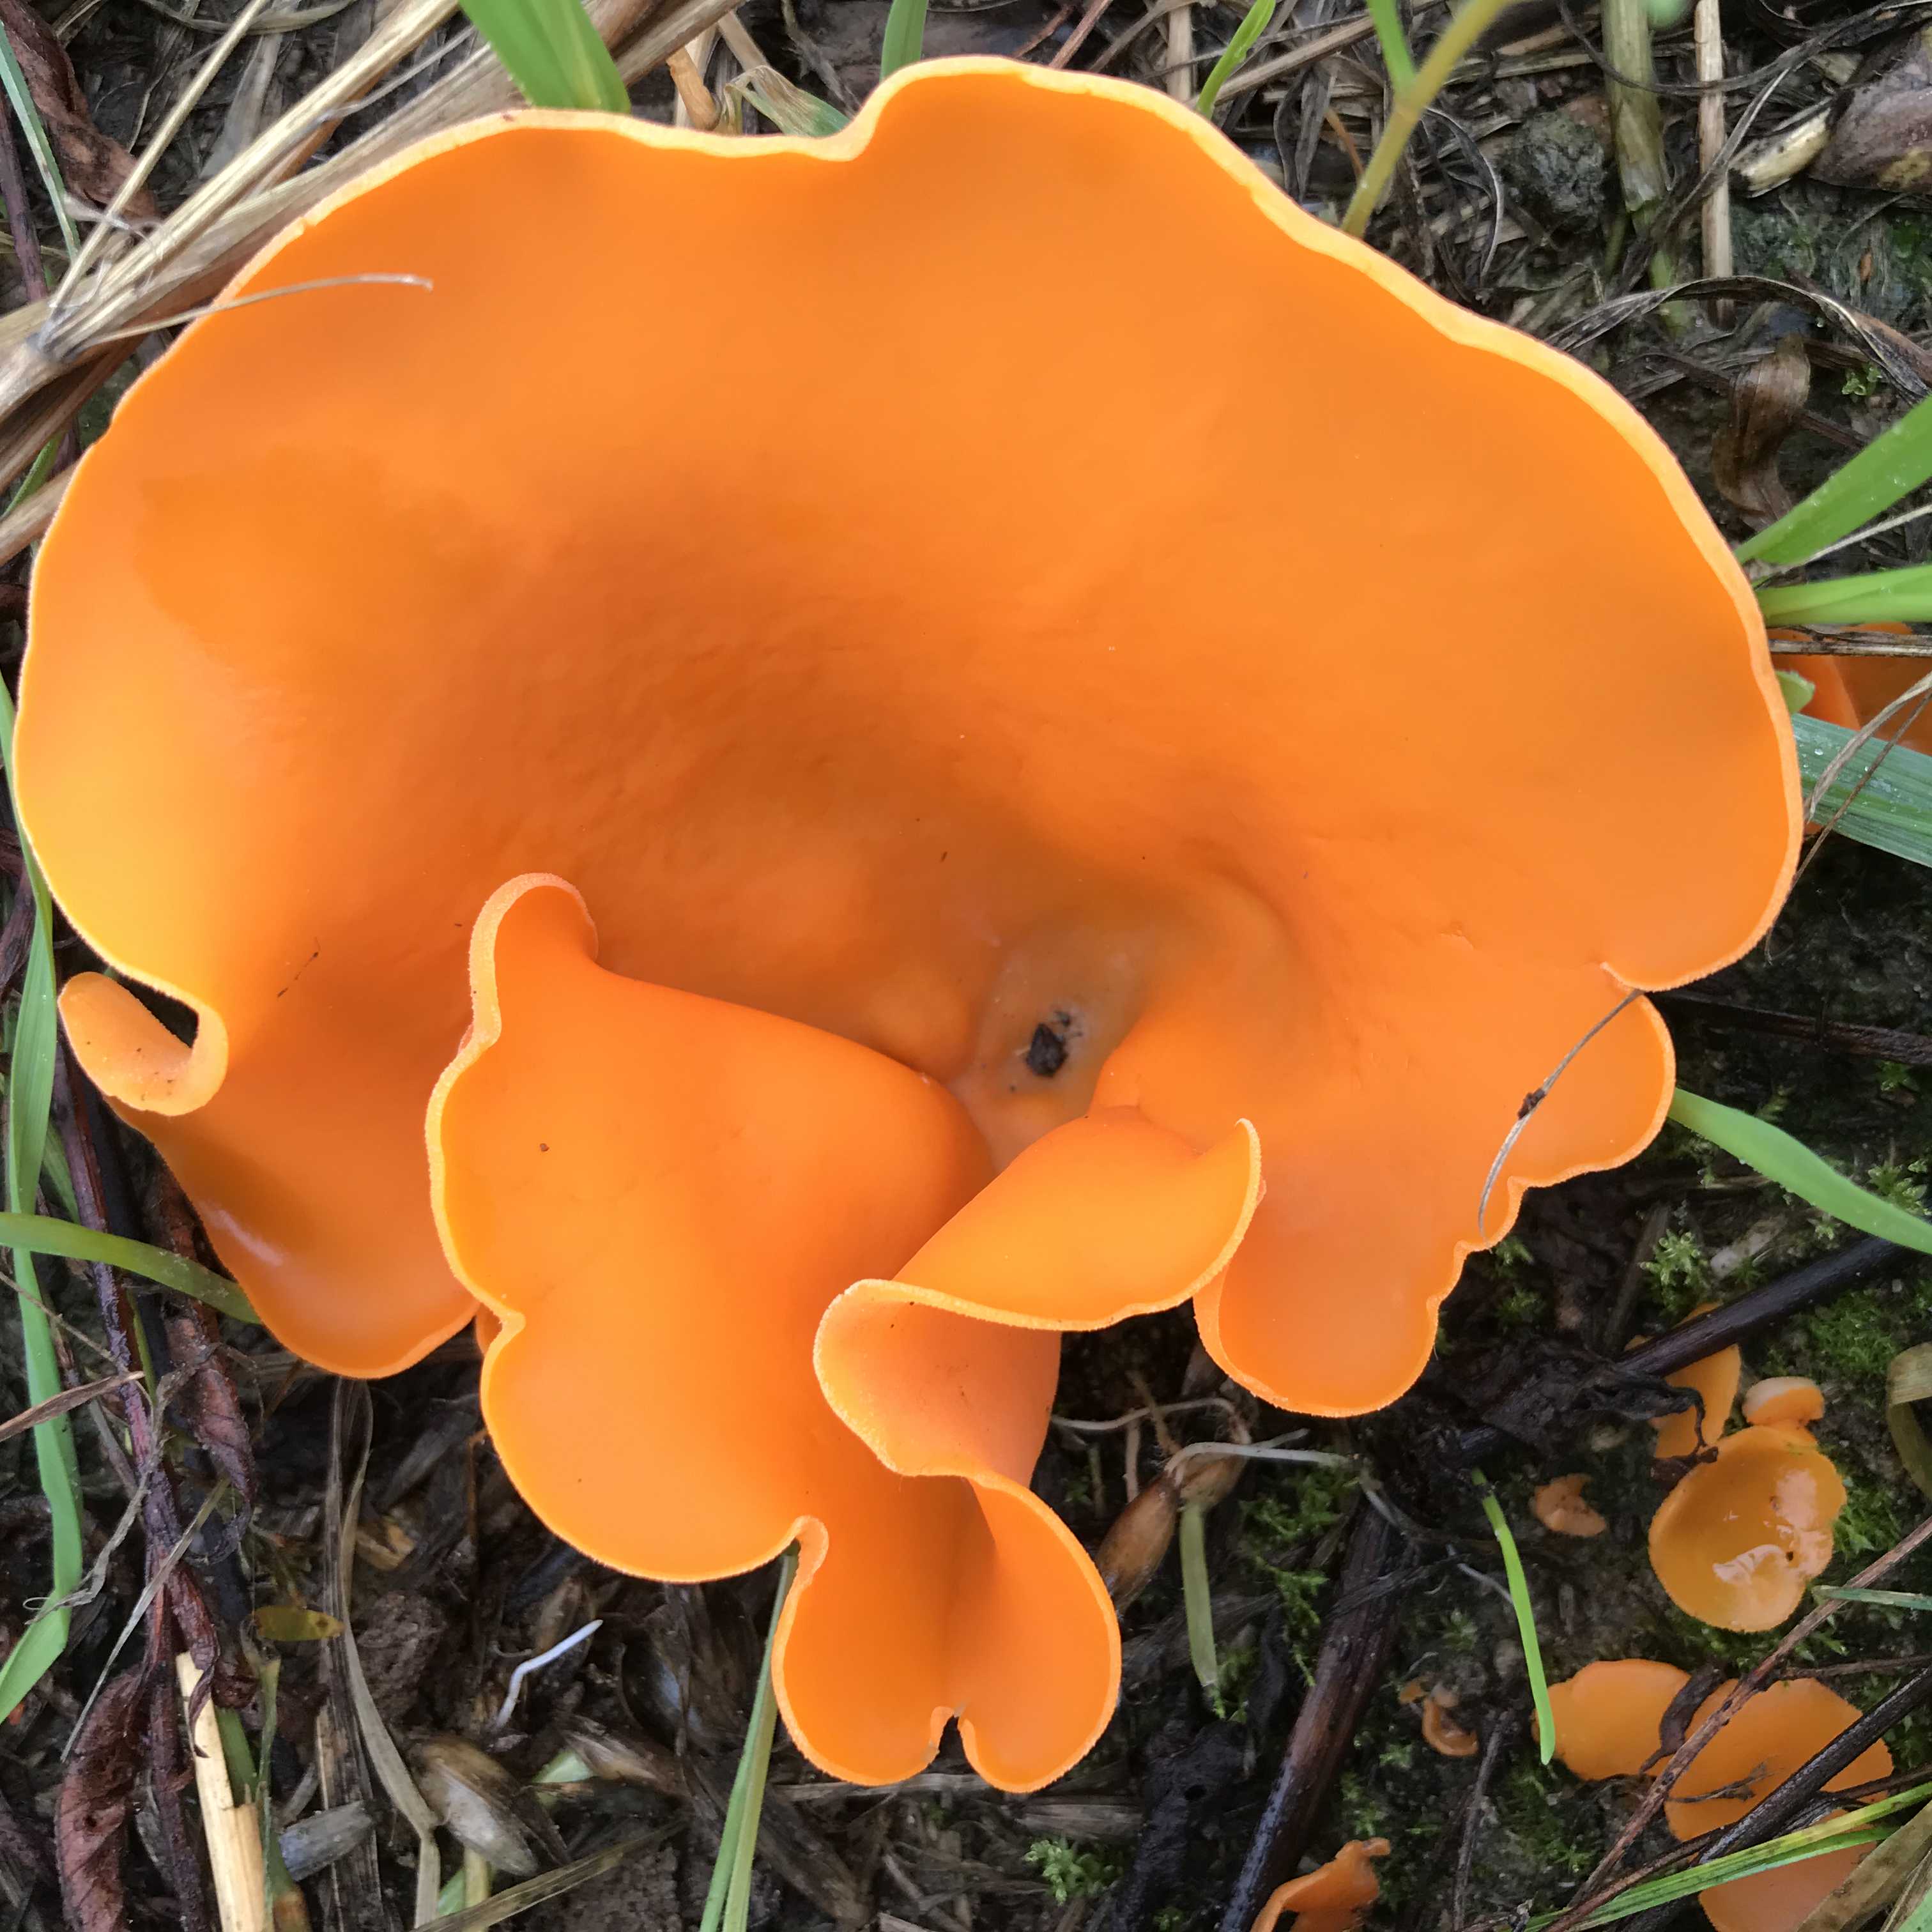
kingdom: Fungi
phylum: Ascomycota
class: Pezizomycetes
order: Pezizales
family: Pyronemataceae
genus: Aleuria
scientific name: Aleuria aurantia
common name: almindelig orangebæger
